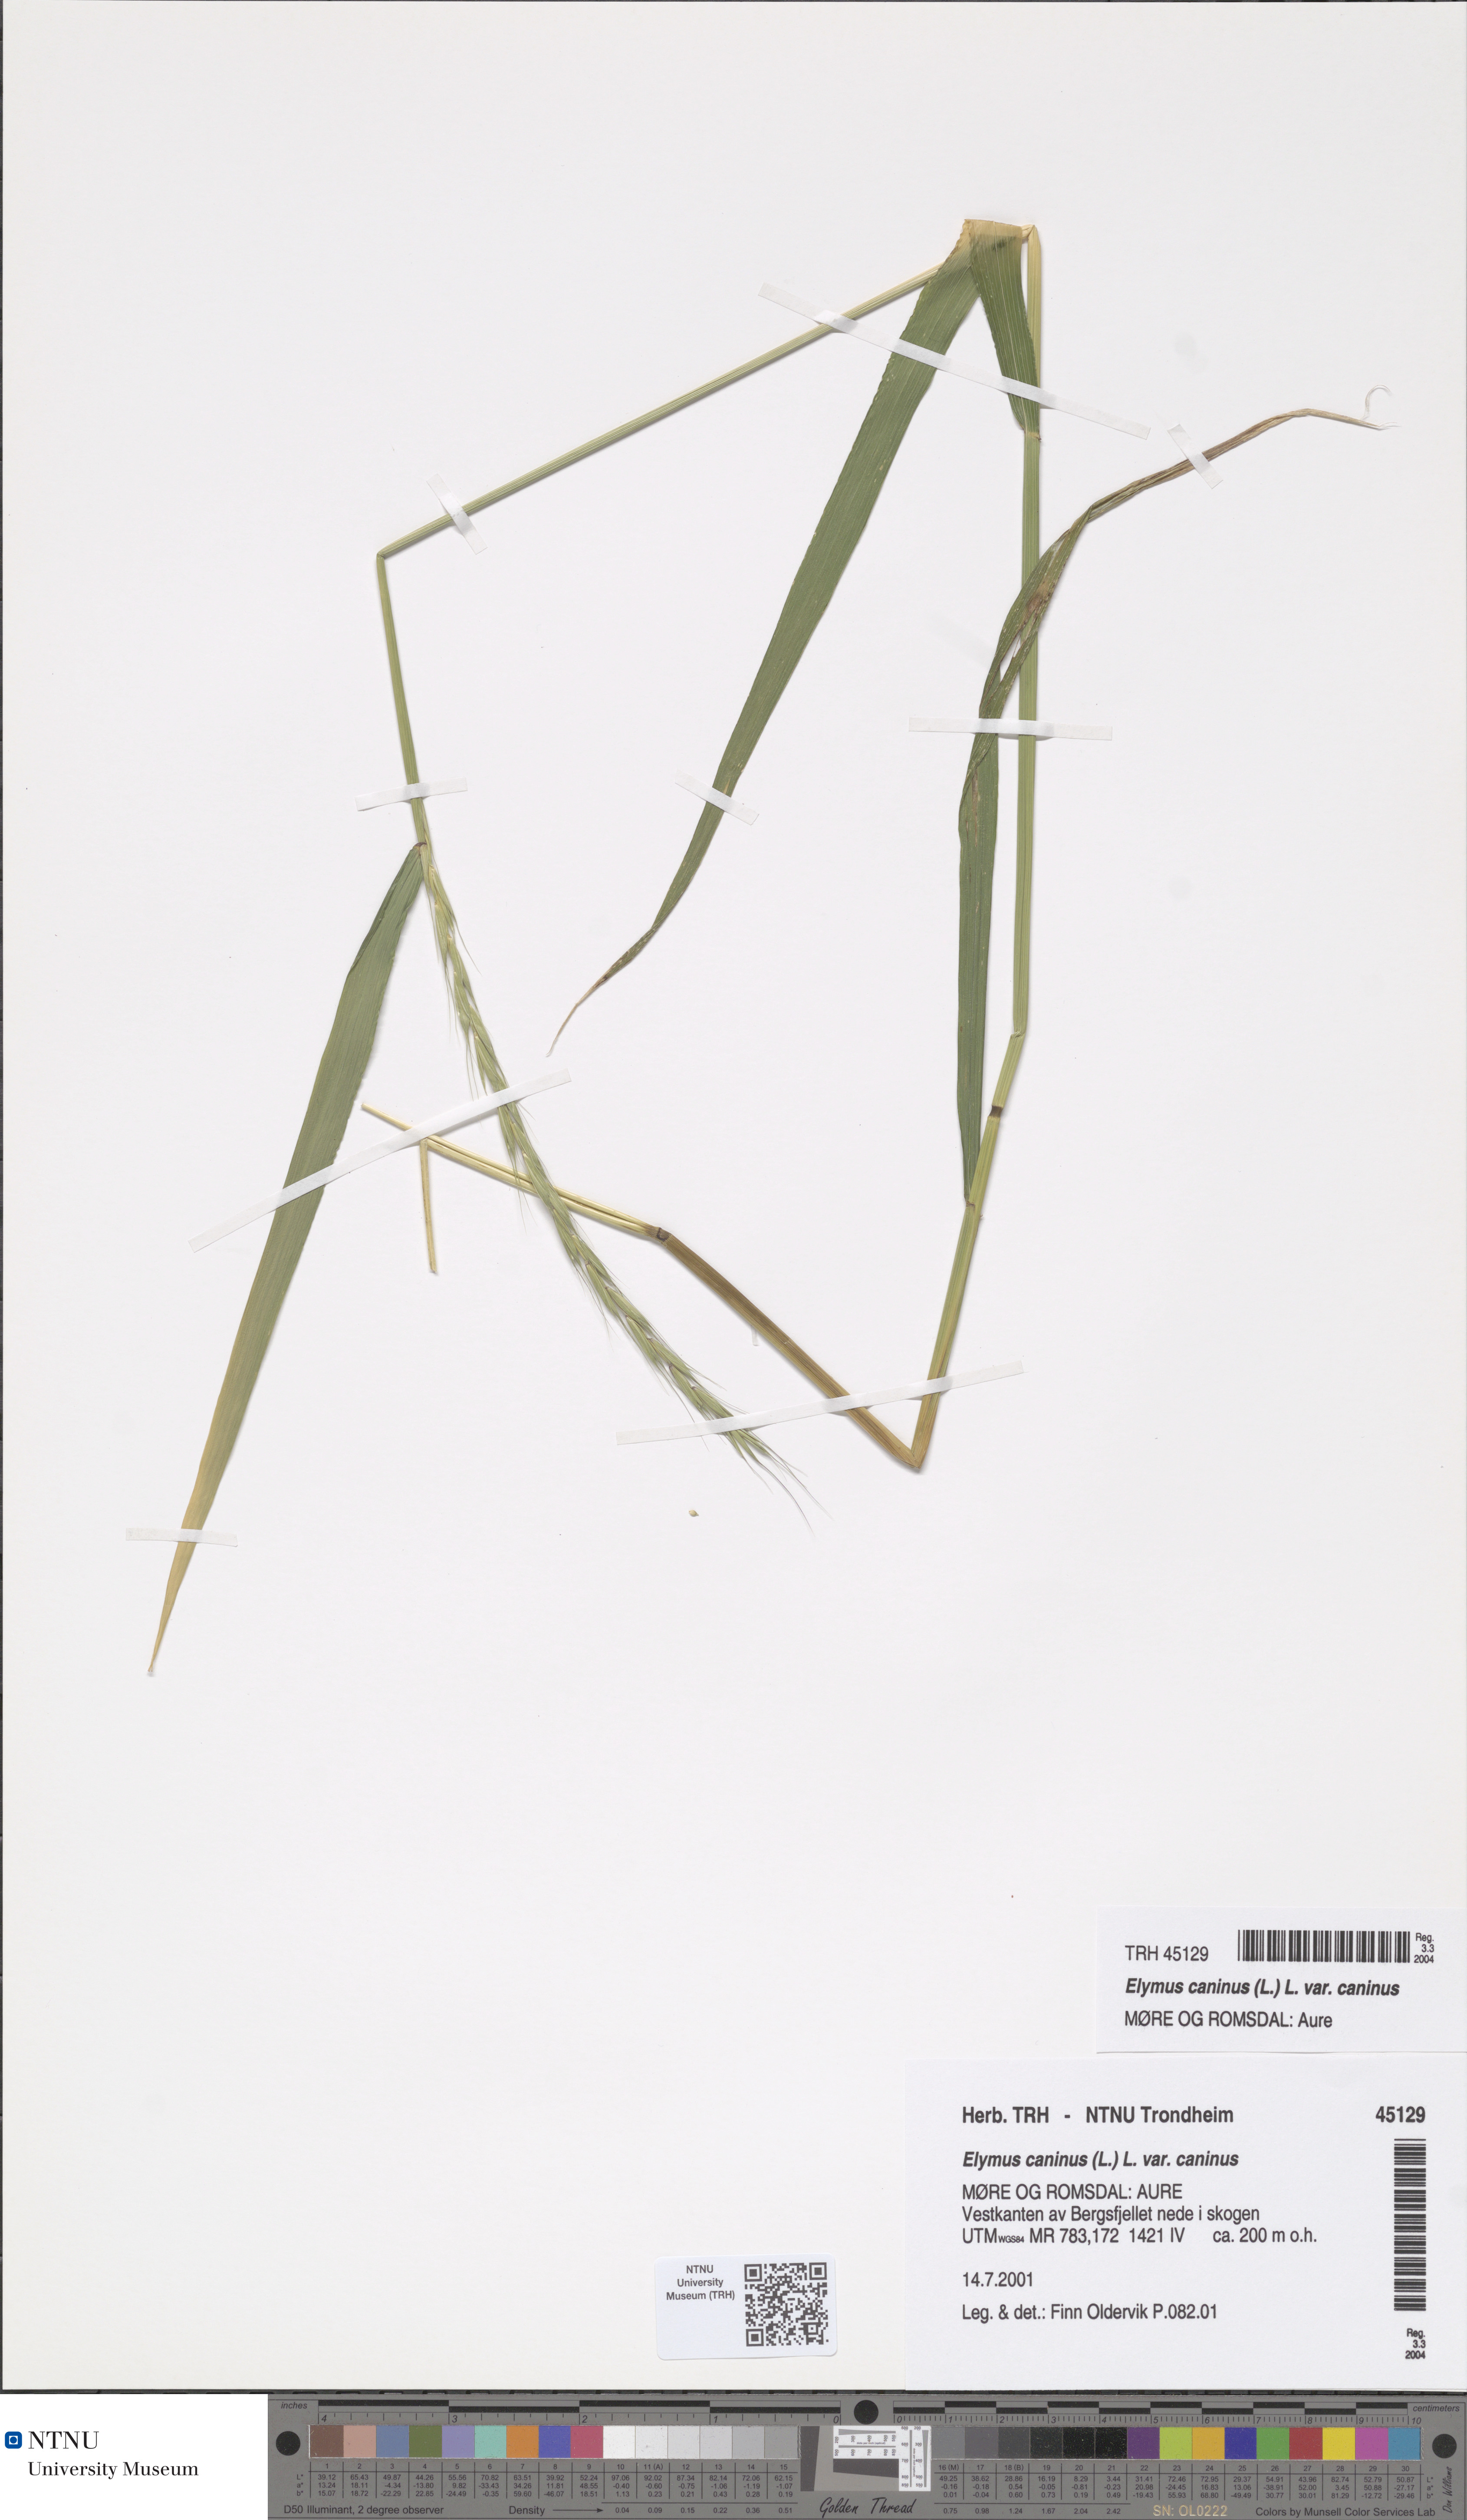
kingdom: Plantae
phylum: Tracheophyta
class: Liliopsida
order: Poales
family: Poaceae
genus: Elymus
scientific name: Elymus caninus
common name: Bearded couch
